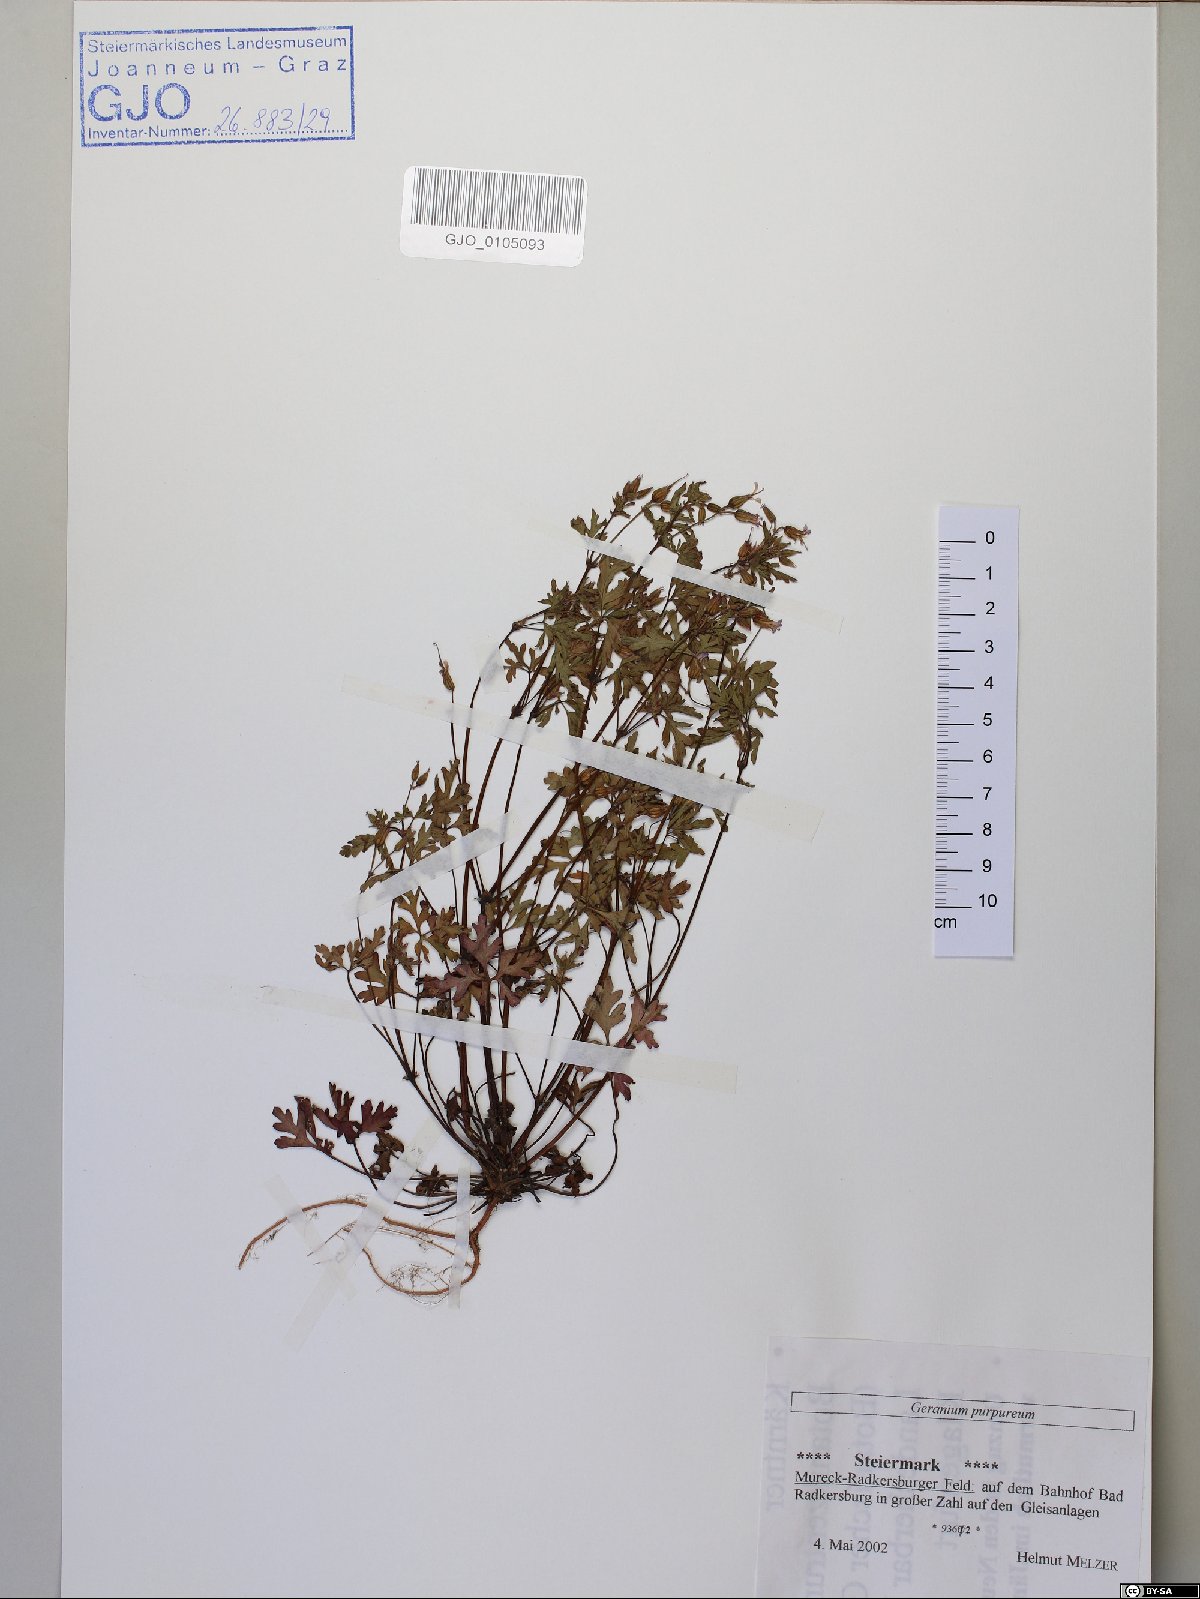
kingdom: Plantae
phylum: Tracheophyta
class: Magnoliopsida
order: Geraniales
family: Geraniaceae
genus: Geranium
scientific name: Geranium purpureum
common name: Little-robin
